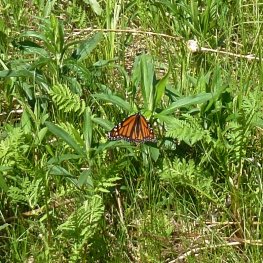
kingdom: Animalia
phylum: Arthropoda
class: Insecta
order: Lepidoptera
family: Nymphalidae
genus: Danaus
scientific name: Danaus plexippus
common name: Monarch
